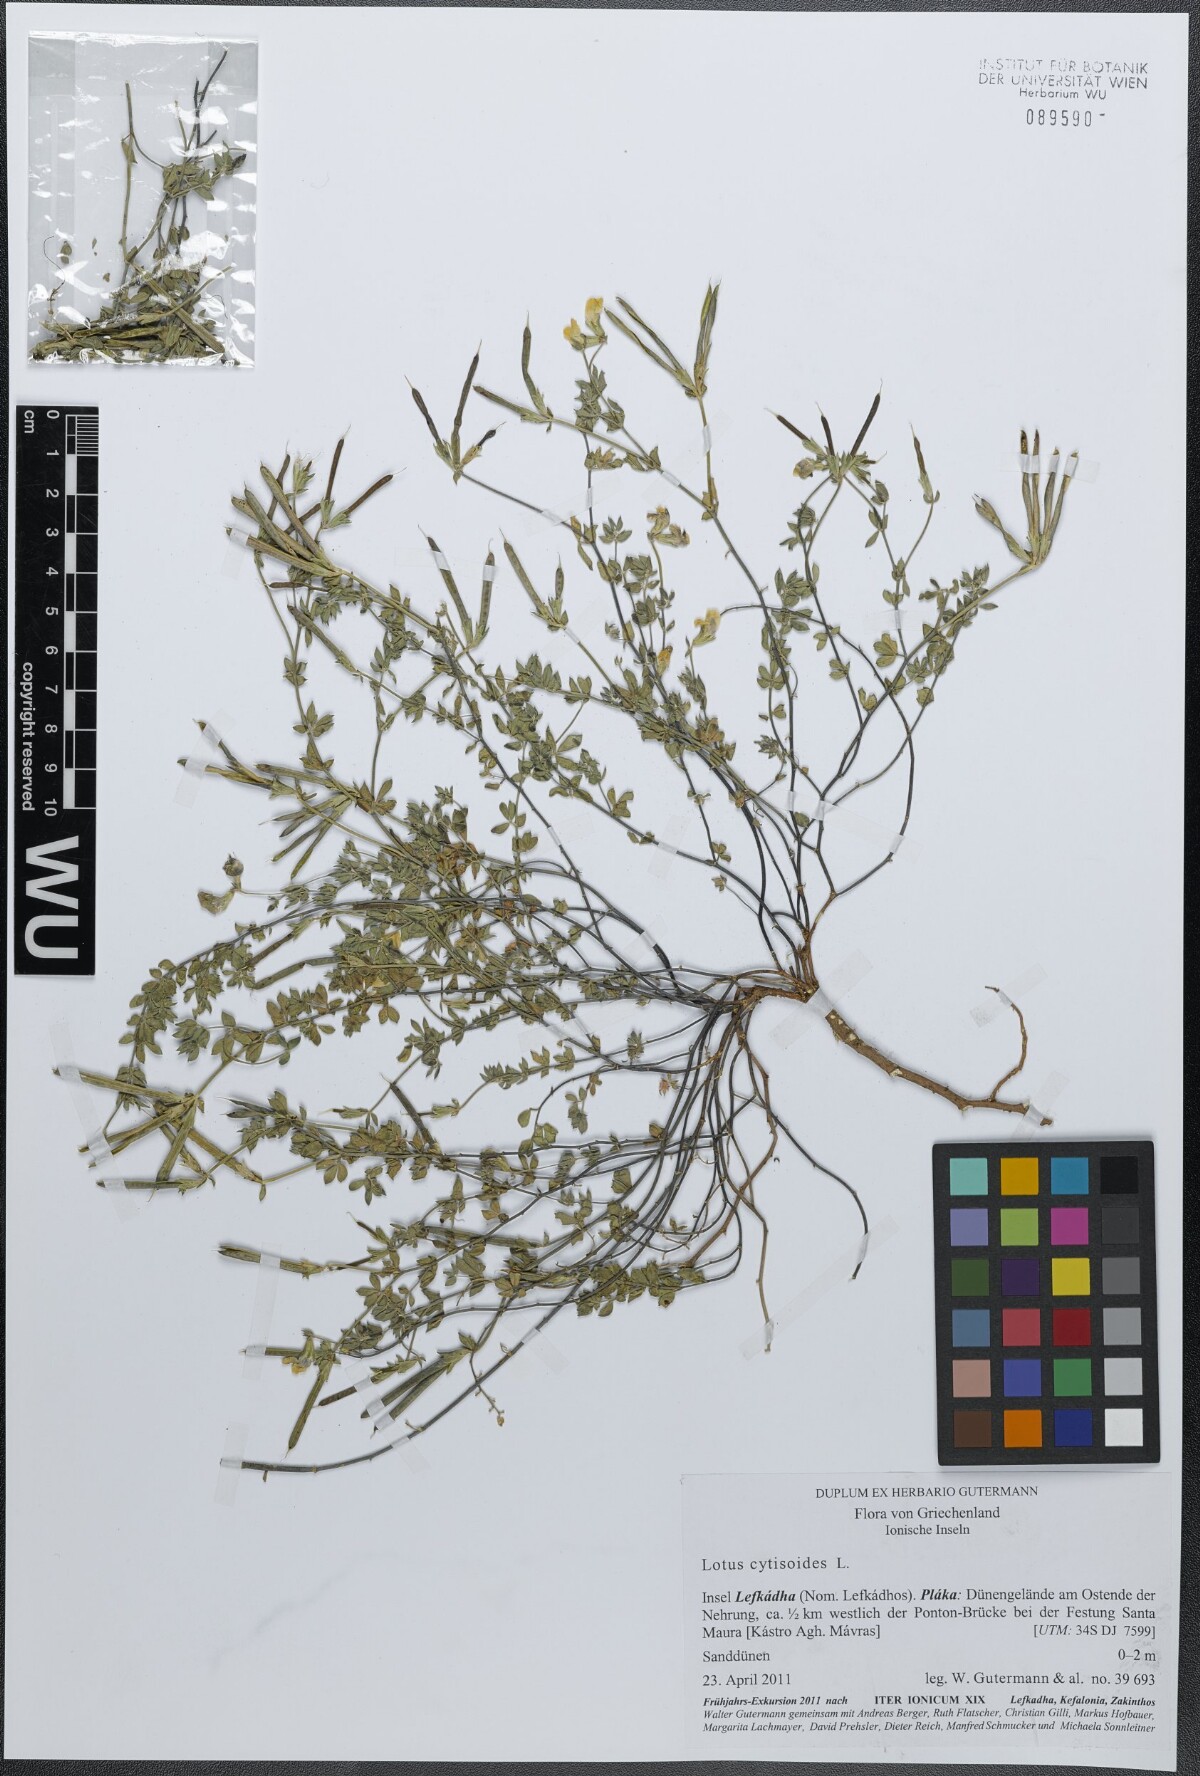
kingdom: Plantae
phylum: Tracheophyta
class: Magnoliopsida
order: Fabales
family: Fabaceae
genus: Lotus
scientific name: Lotus cytisoides
